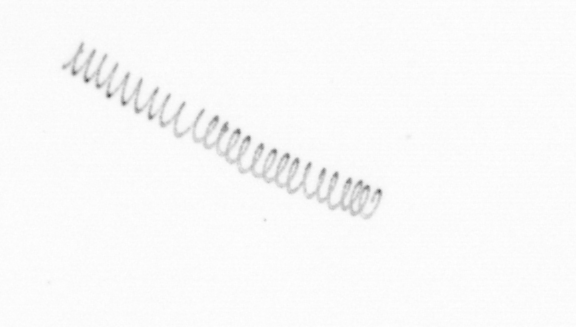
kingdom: Chromista
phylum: Ochrophyta
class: Bacillariophyceae
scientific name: Bacillariophyceae
